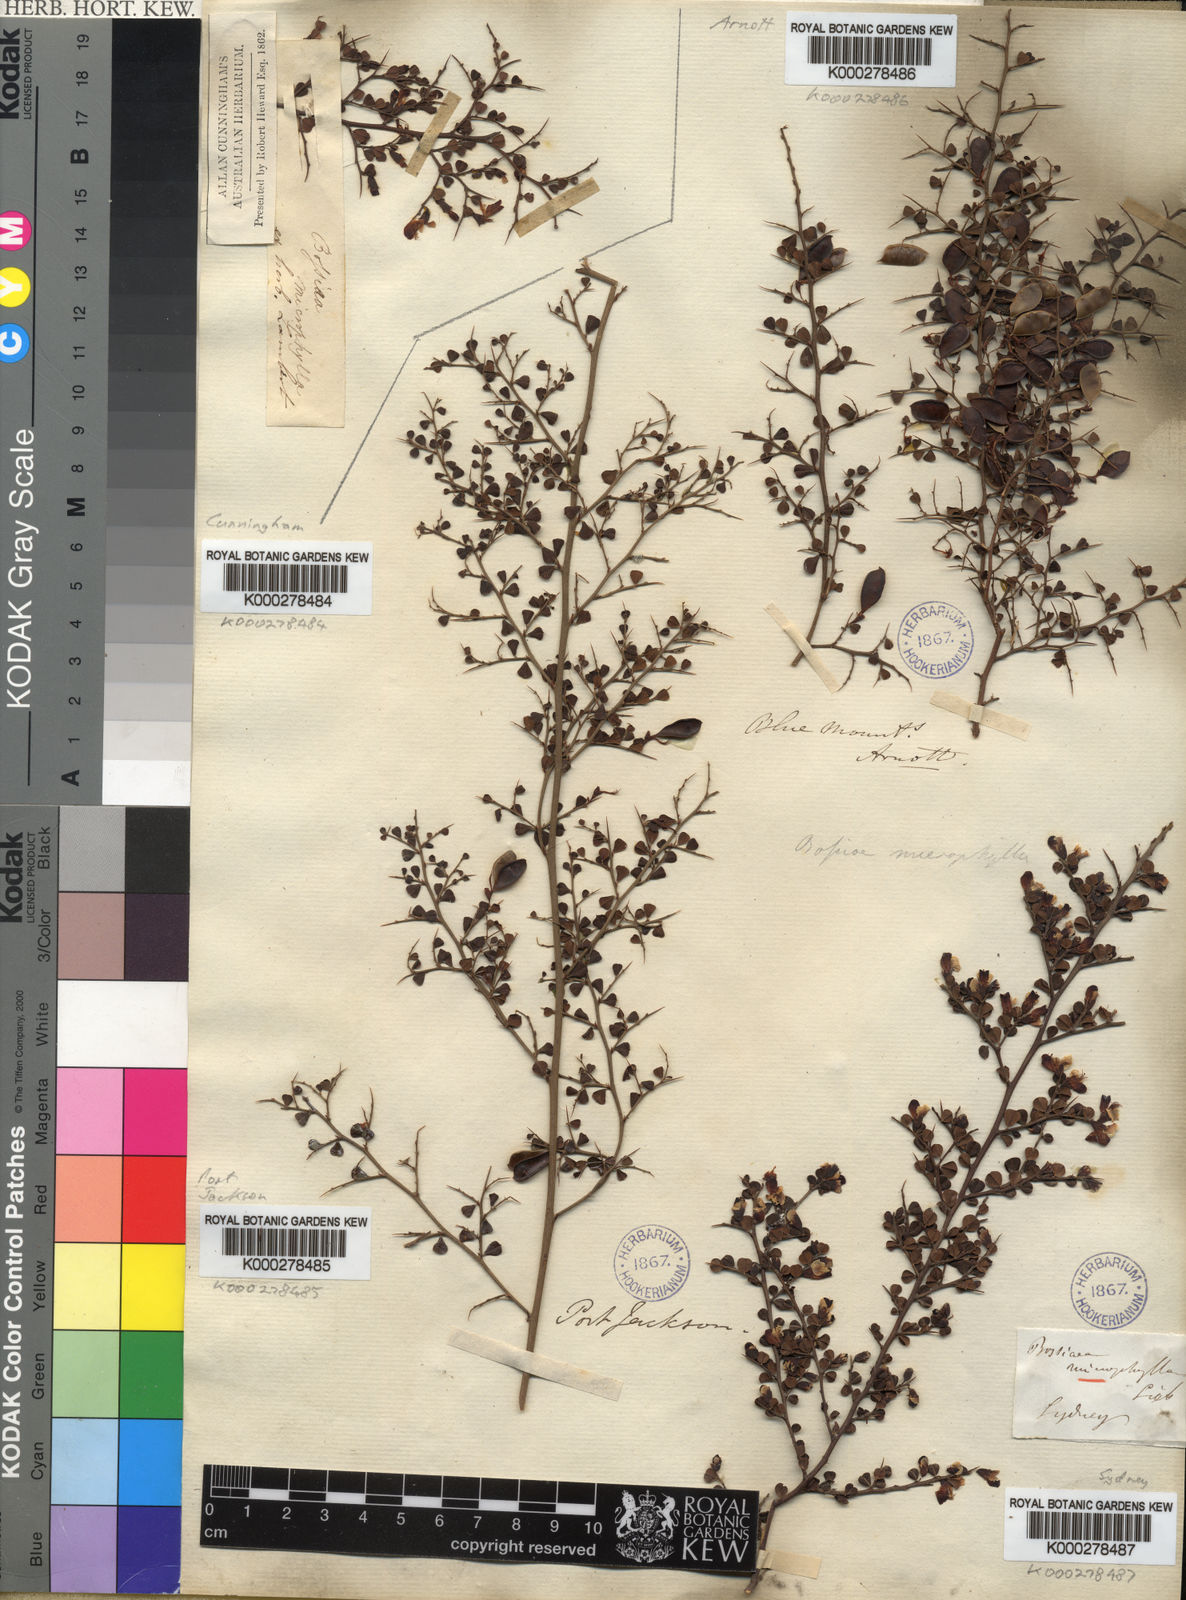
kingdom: Plantae
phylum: Tracheophyta
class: Magnoliopsida
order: Fabales
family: Fabaceae
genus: Bossiaea
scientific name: Bossiaea obcordata
